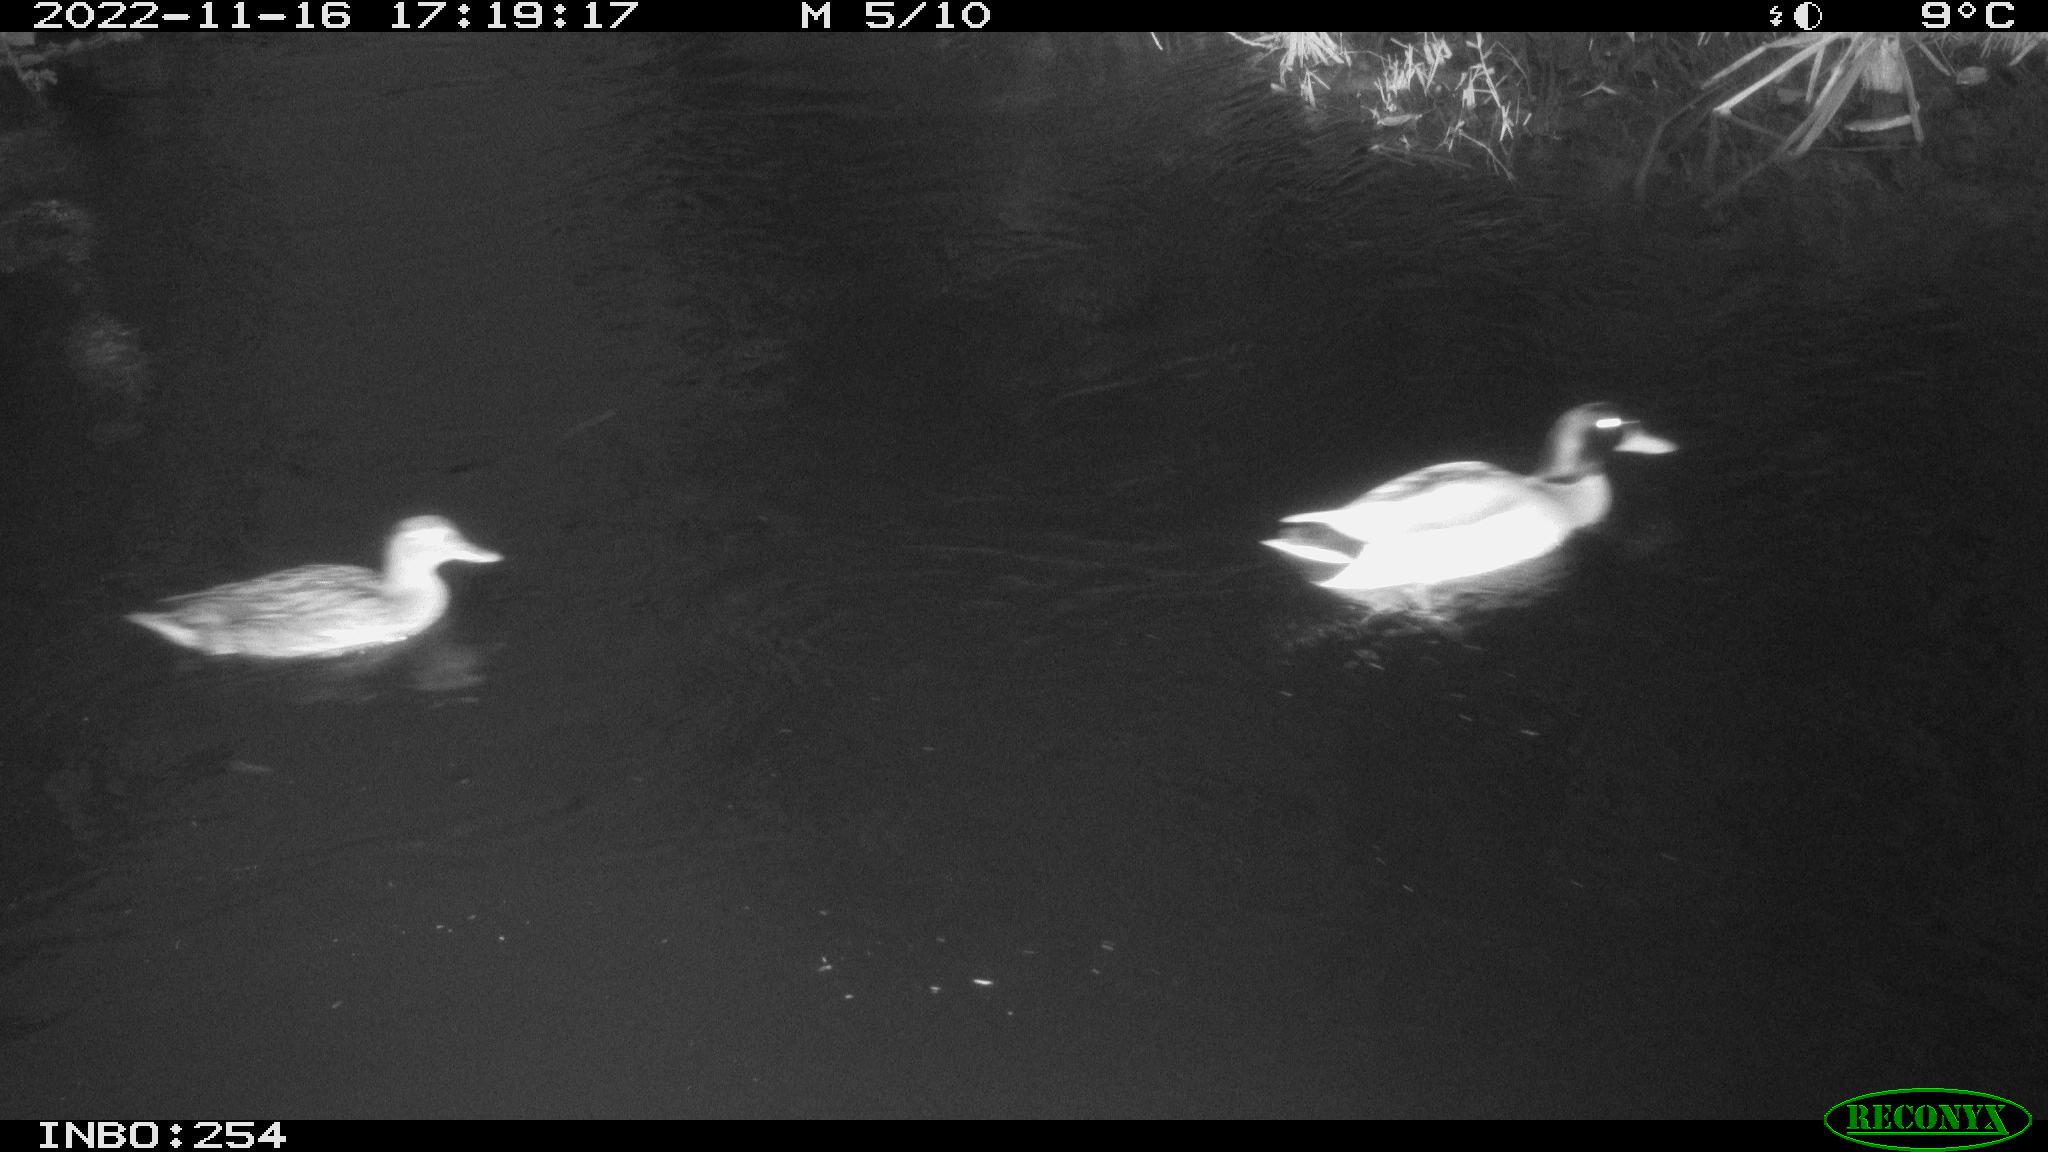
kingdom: Animalia
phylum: Chordata
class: Aves
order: Anseriformes
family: Anatidae
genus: Anas
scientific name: Anas
